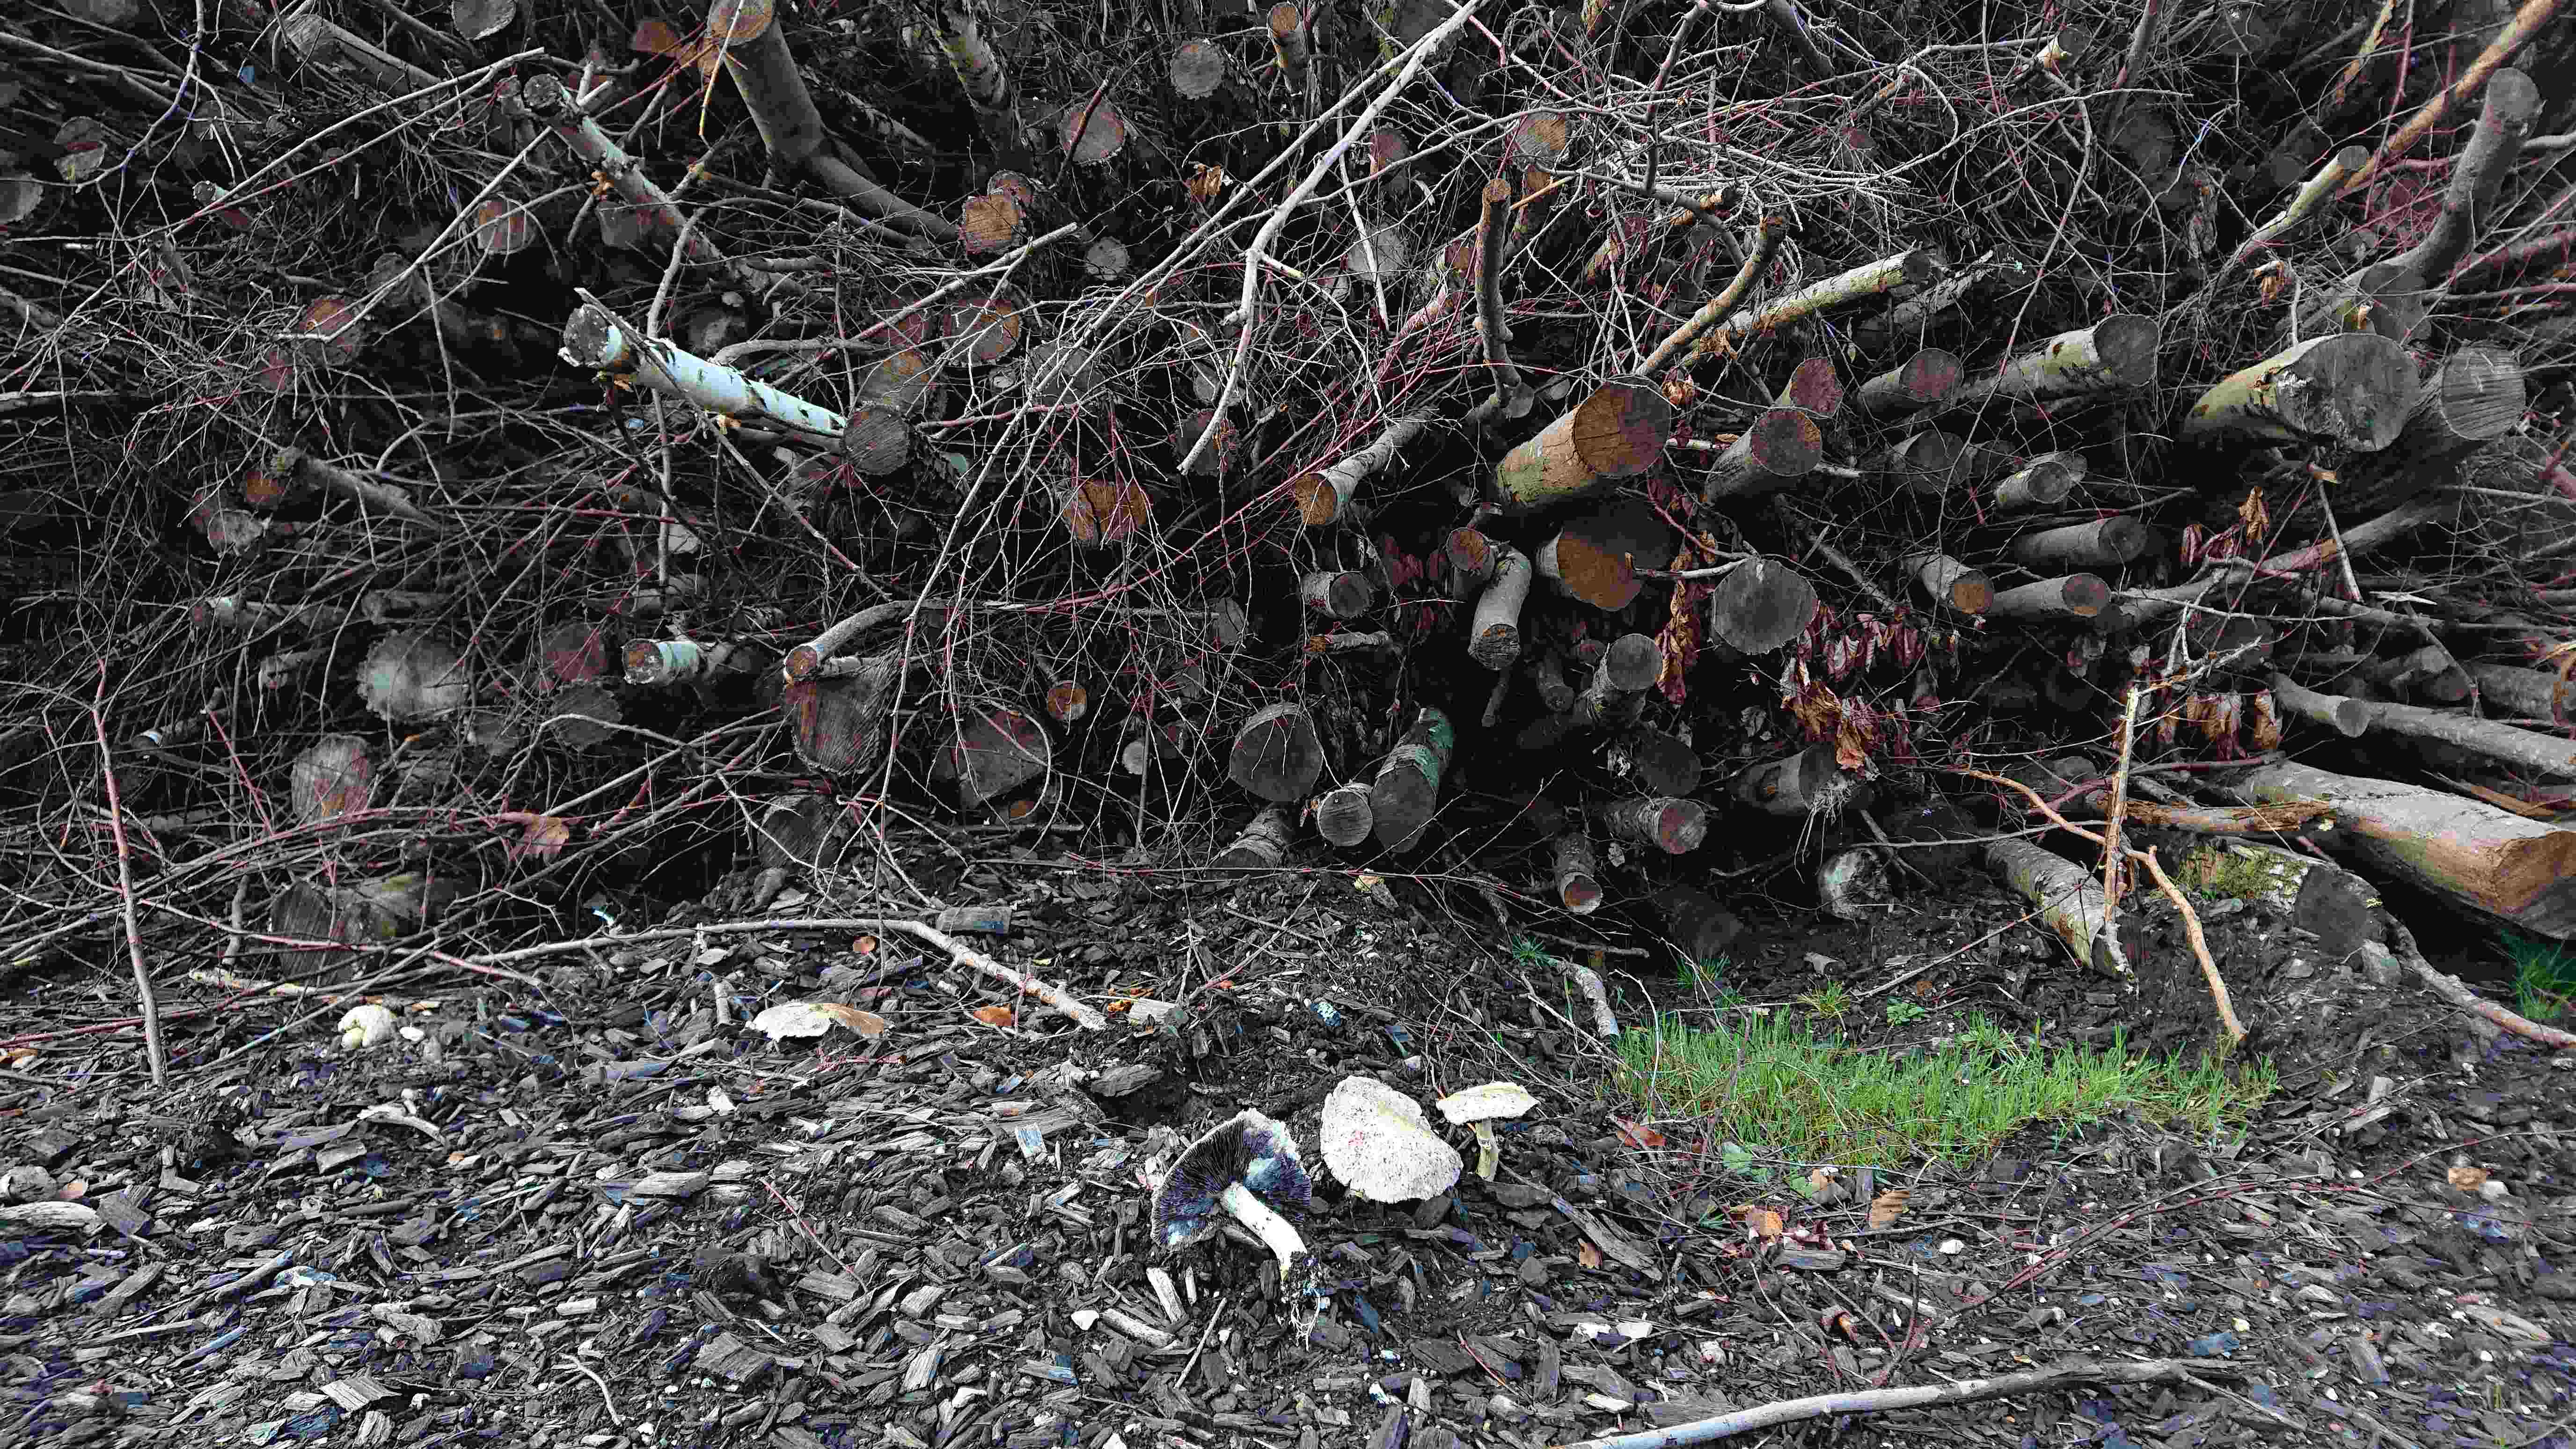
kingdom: Fungi
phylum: Basidiomycota
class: Agaricomycetes
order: Agaricales
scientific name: Agaricales
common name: champignonordenen
